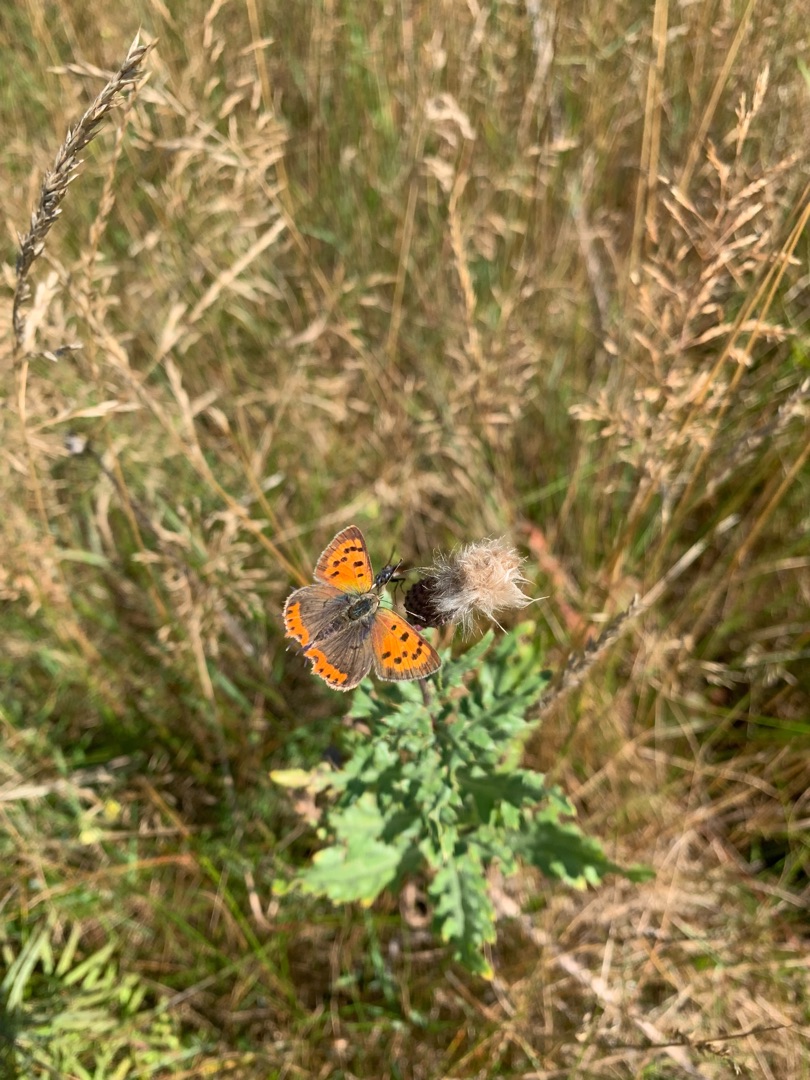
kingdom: Animalia
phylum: Arthropoda
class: Insecta
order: Lepidoptera
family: Lycaenidae
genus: Lycaena
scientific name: Lycaena phlaeas
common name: Lille ildfugl
